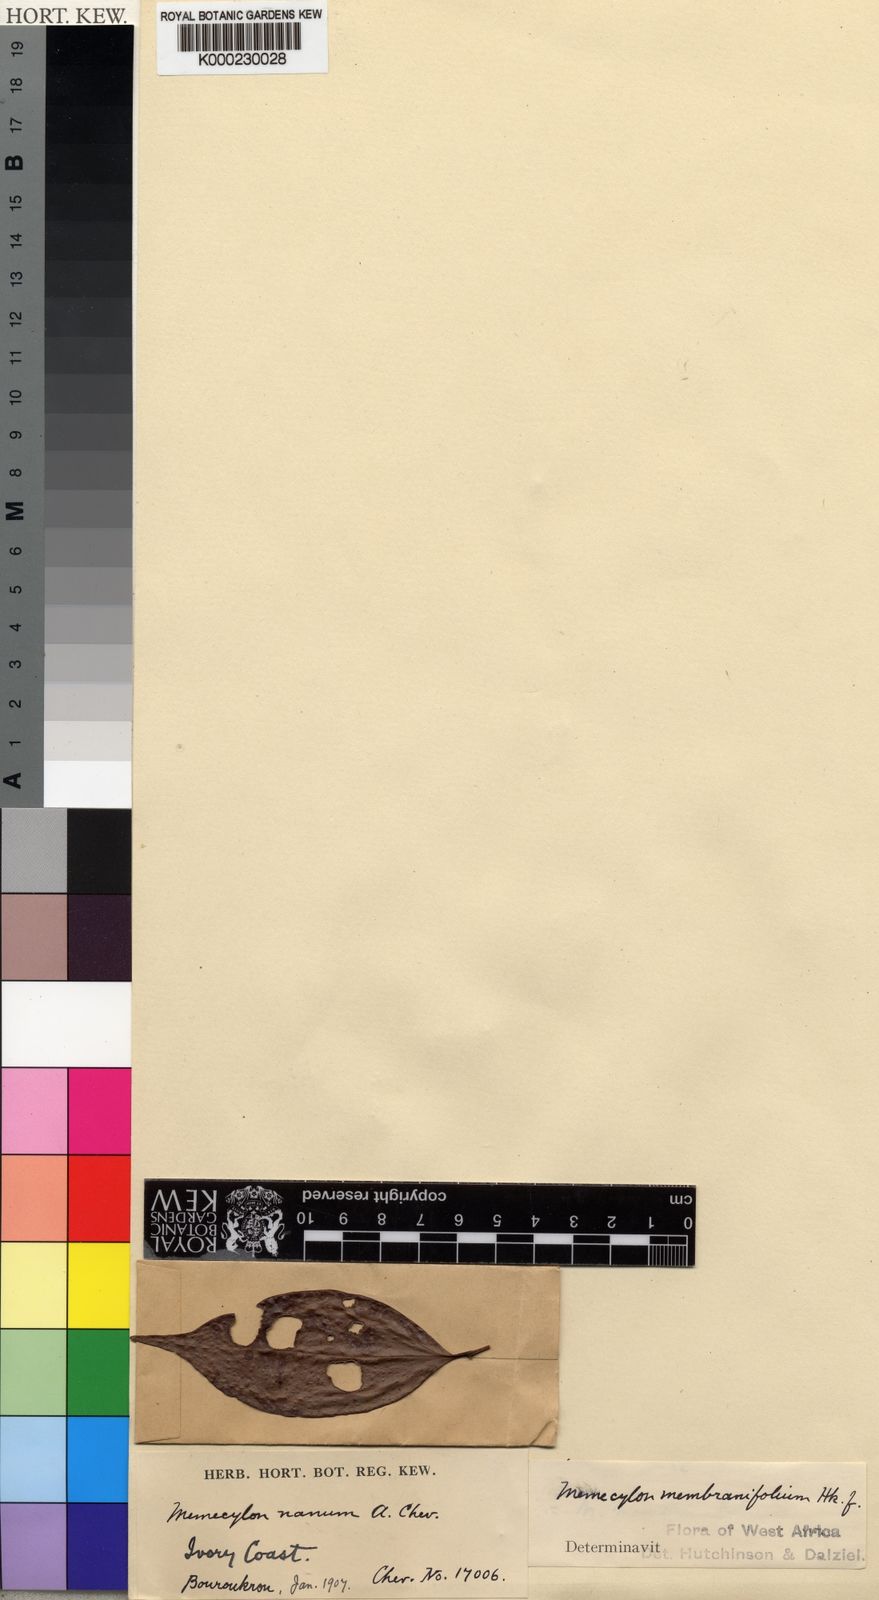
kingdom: Plantae
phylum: Tracheophyta
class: Magnoliopsida
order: Myrtales
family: Melastomataceae
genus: Warneckea
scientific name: Warneckea membranifolia
